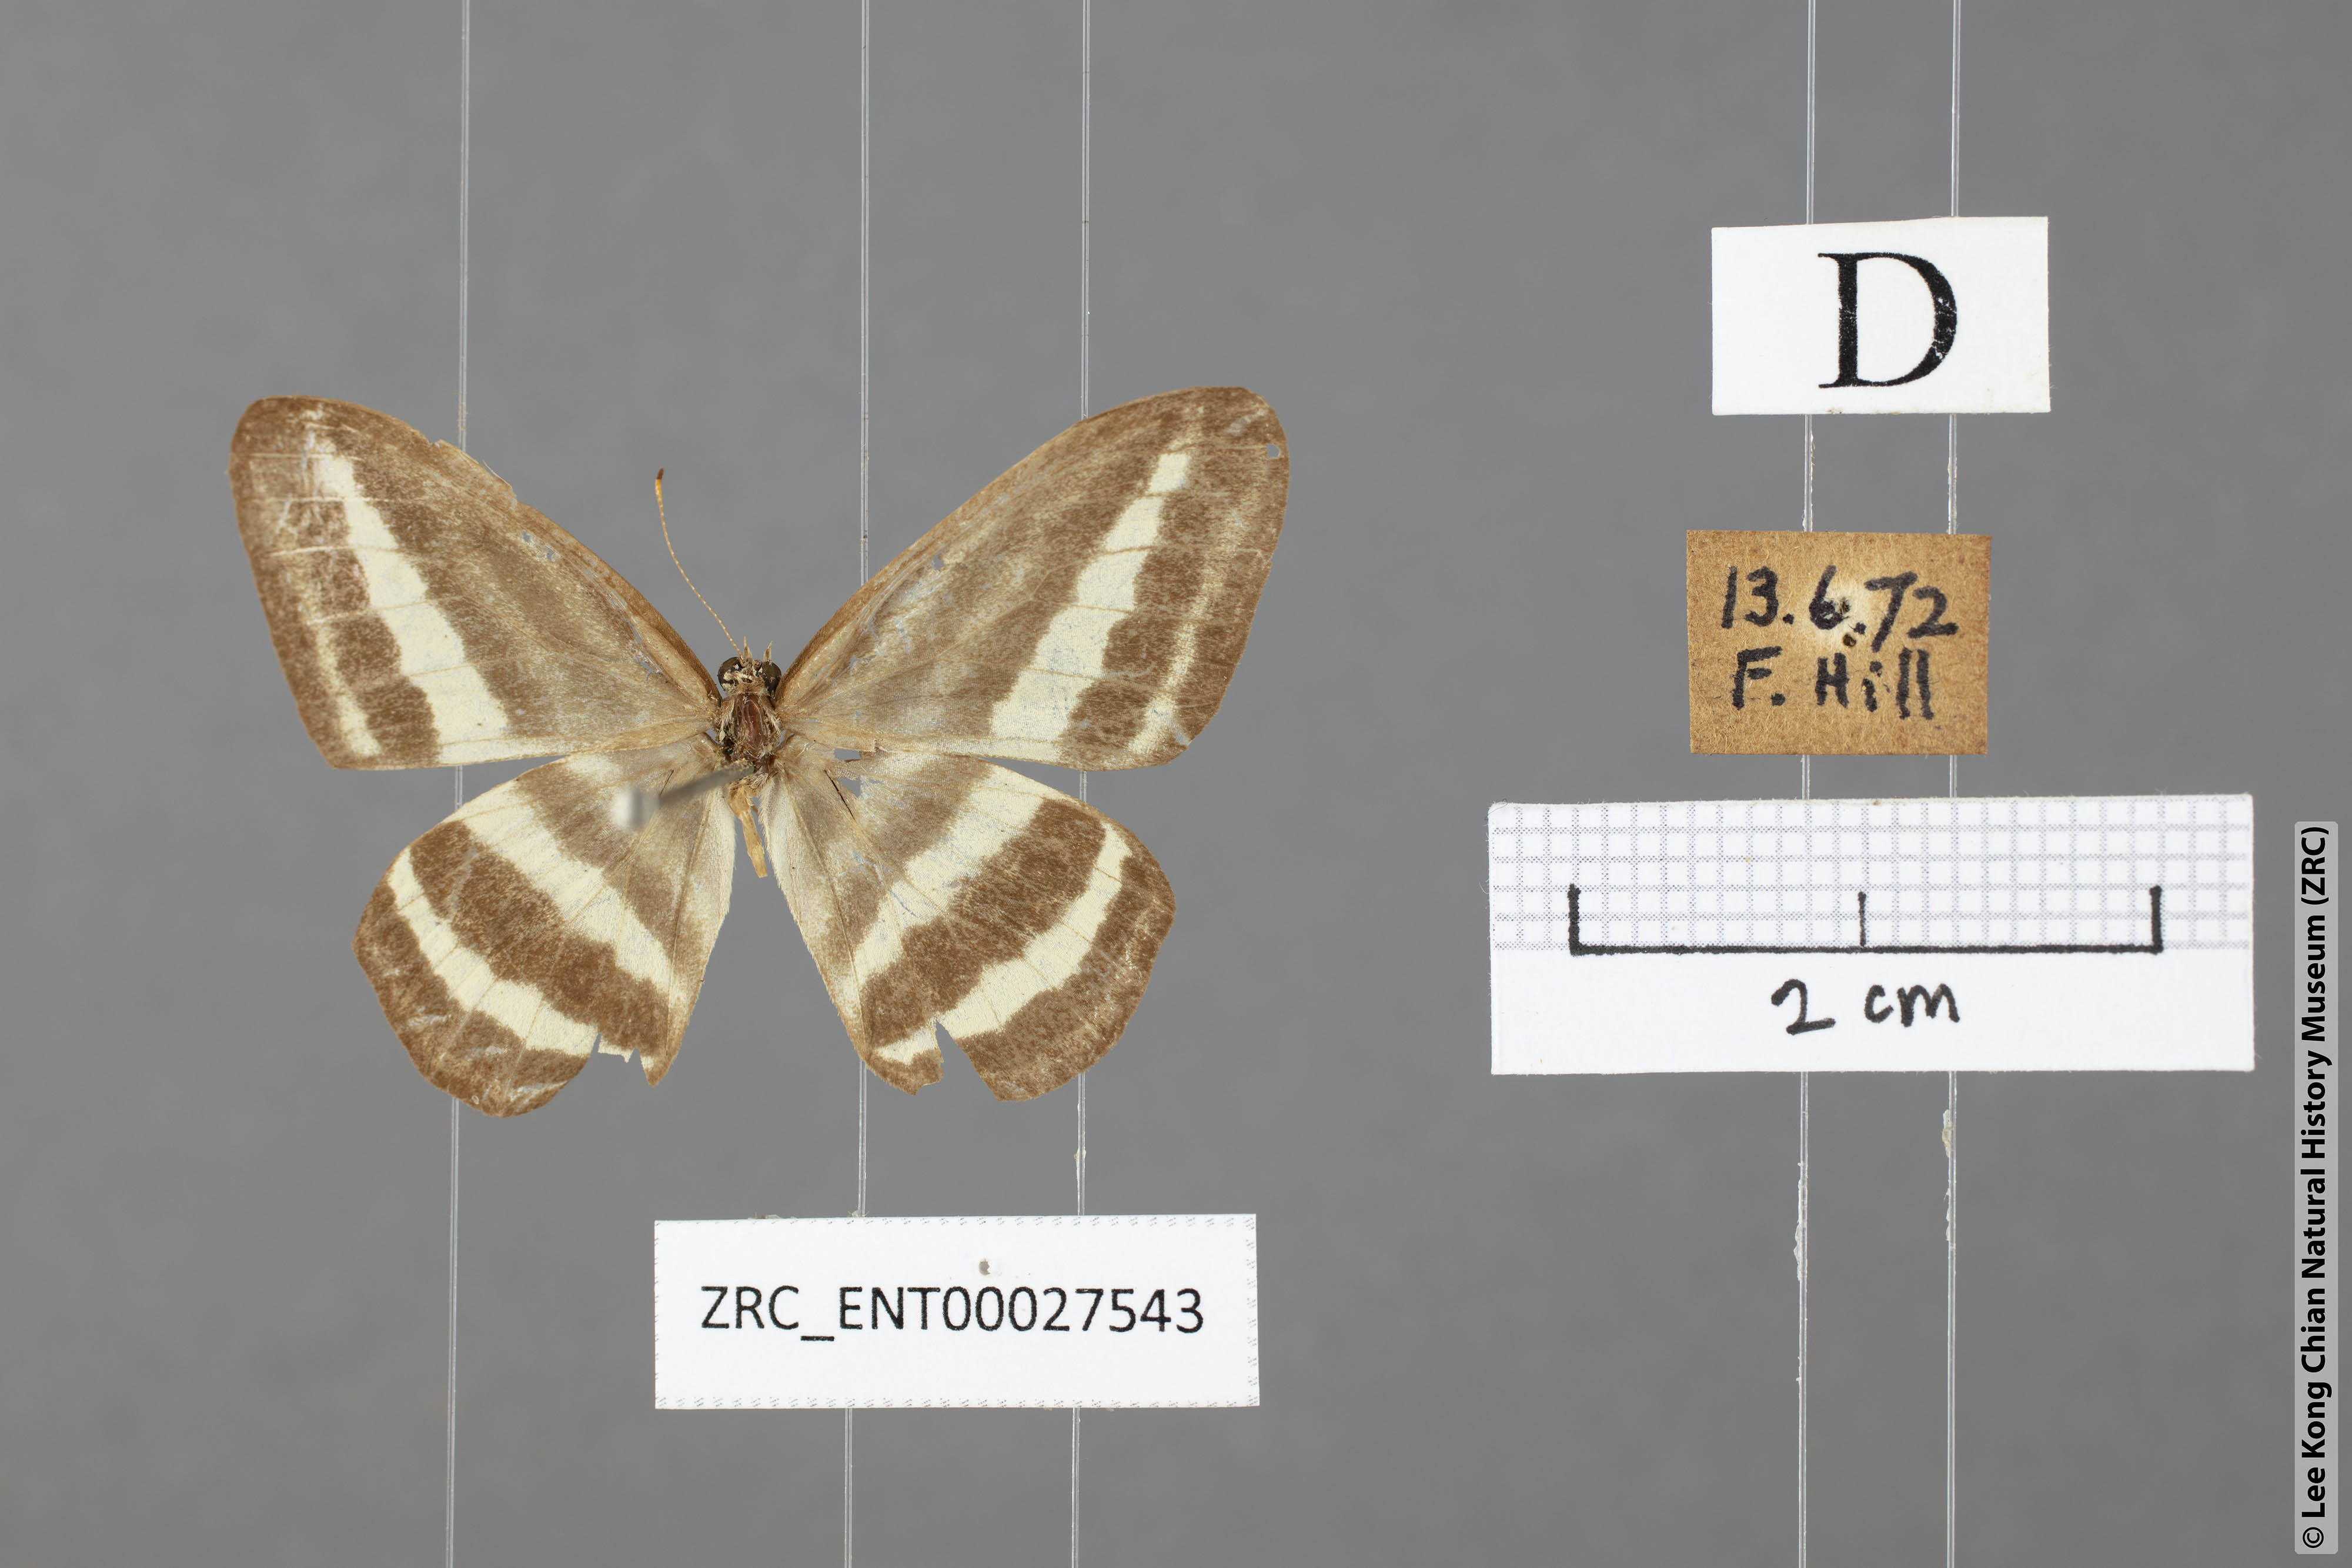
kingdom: Animalia
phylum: Arthropoda
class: Insecta
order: Lepidoptera
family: Nymphalidae
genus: Ragadia
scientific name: Ragadia crisilda
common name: White-striped ringlet
